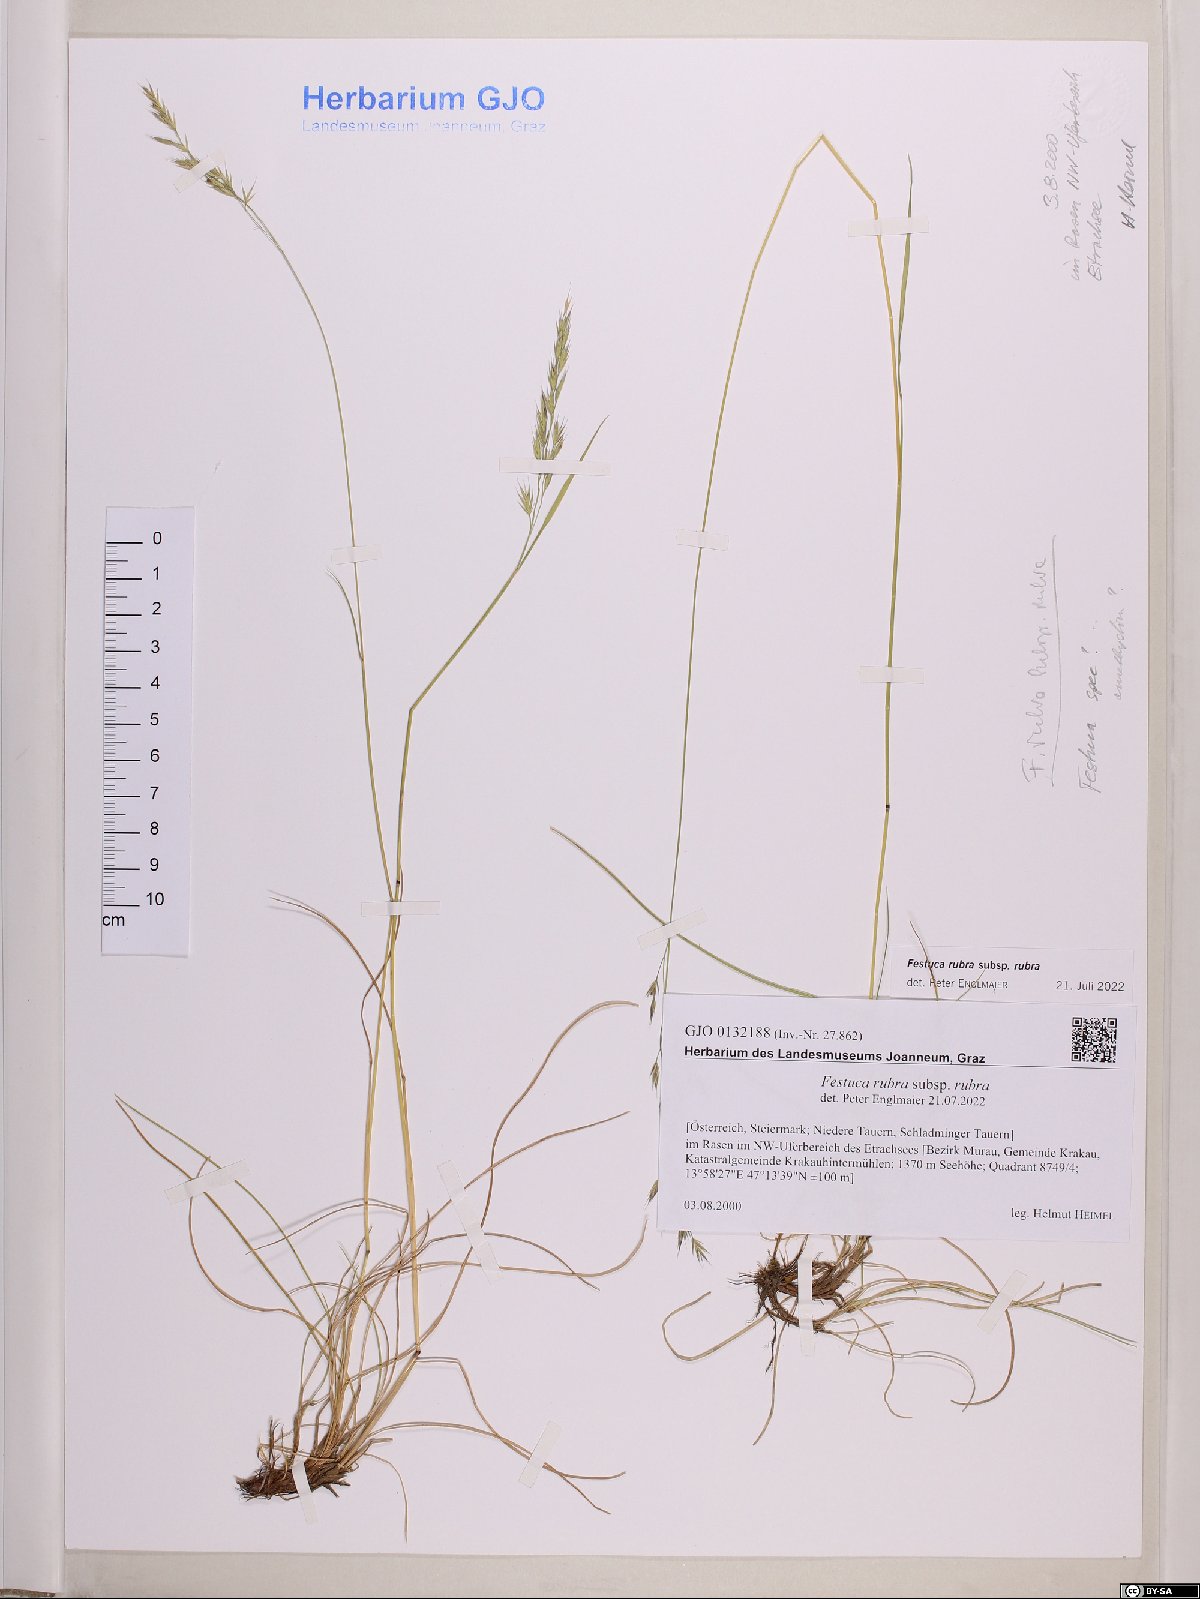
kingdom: Plantae
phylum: Tracheophyta
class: Liliopsida
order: Poales
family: Poaceae
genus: Festuca
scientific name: Festuca rubra
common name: Red fescue
